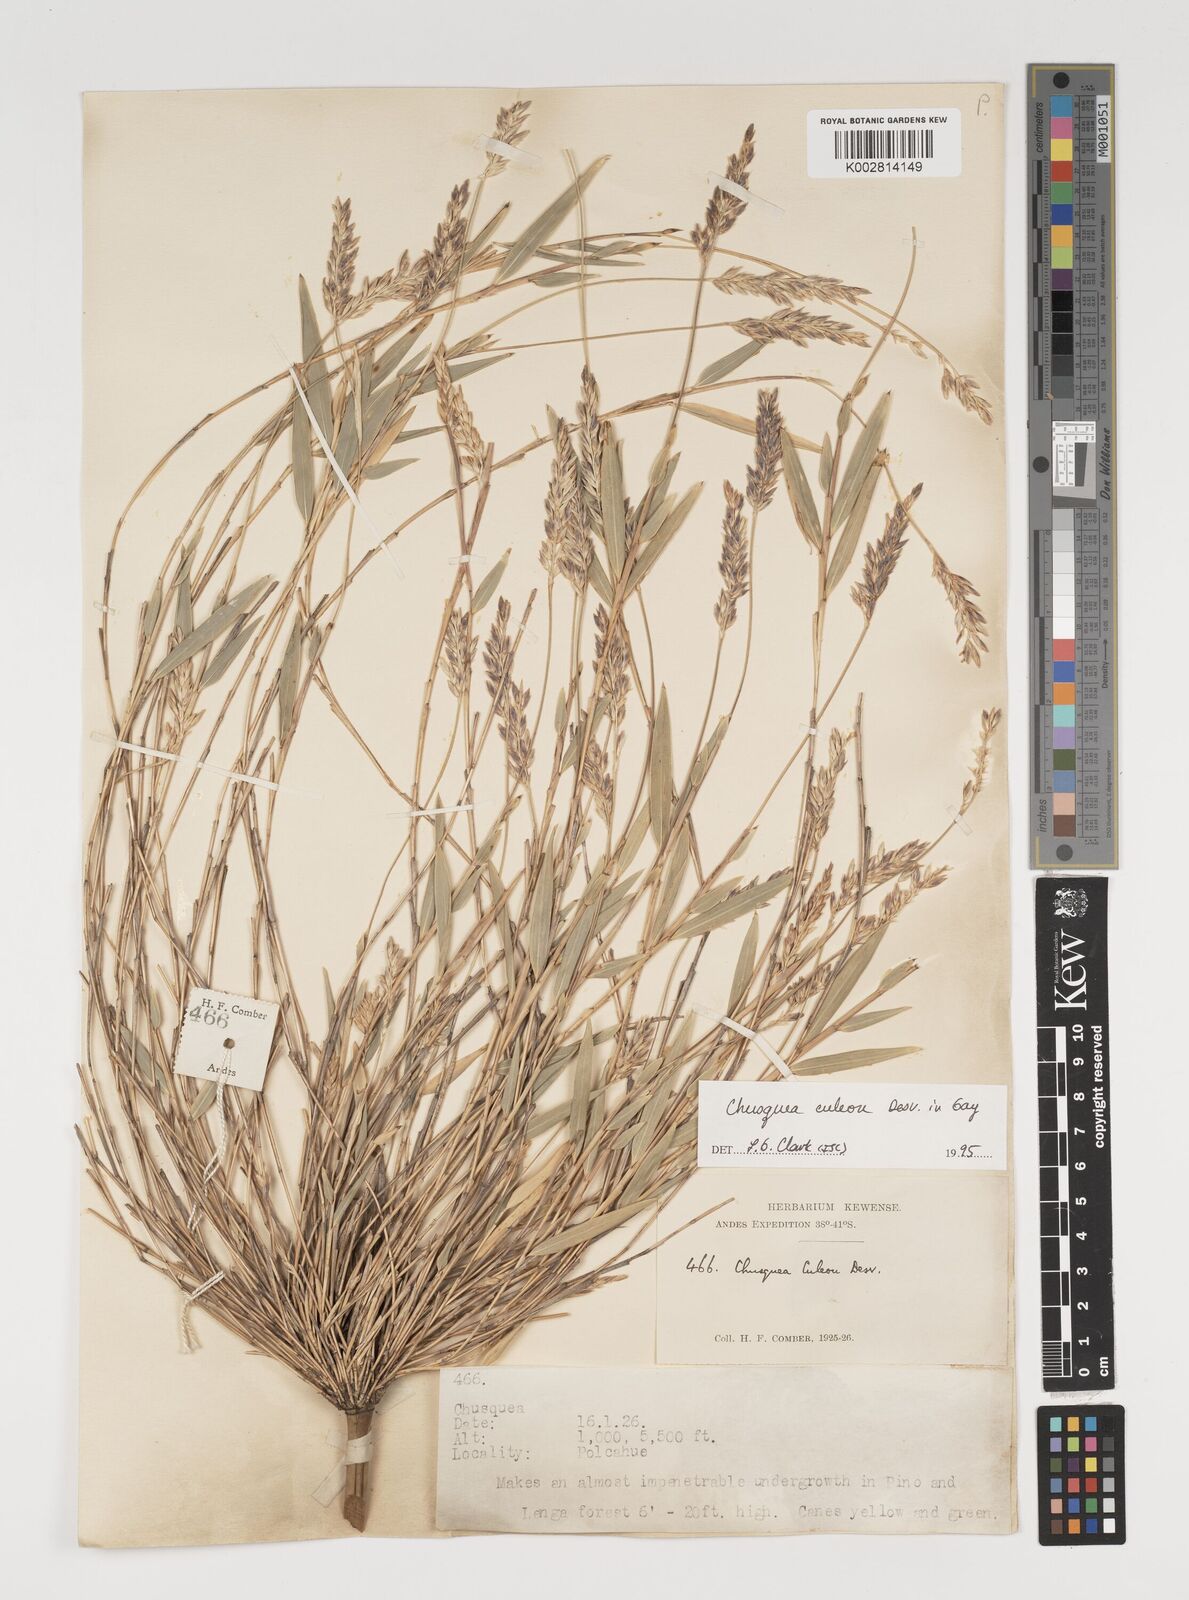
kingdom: Plantae
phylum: Tracheophyta
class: Liliopsida
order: Poales
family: Poaceae
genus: Chusquea
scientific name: Chusquea culeou
